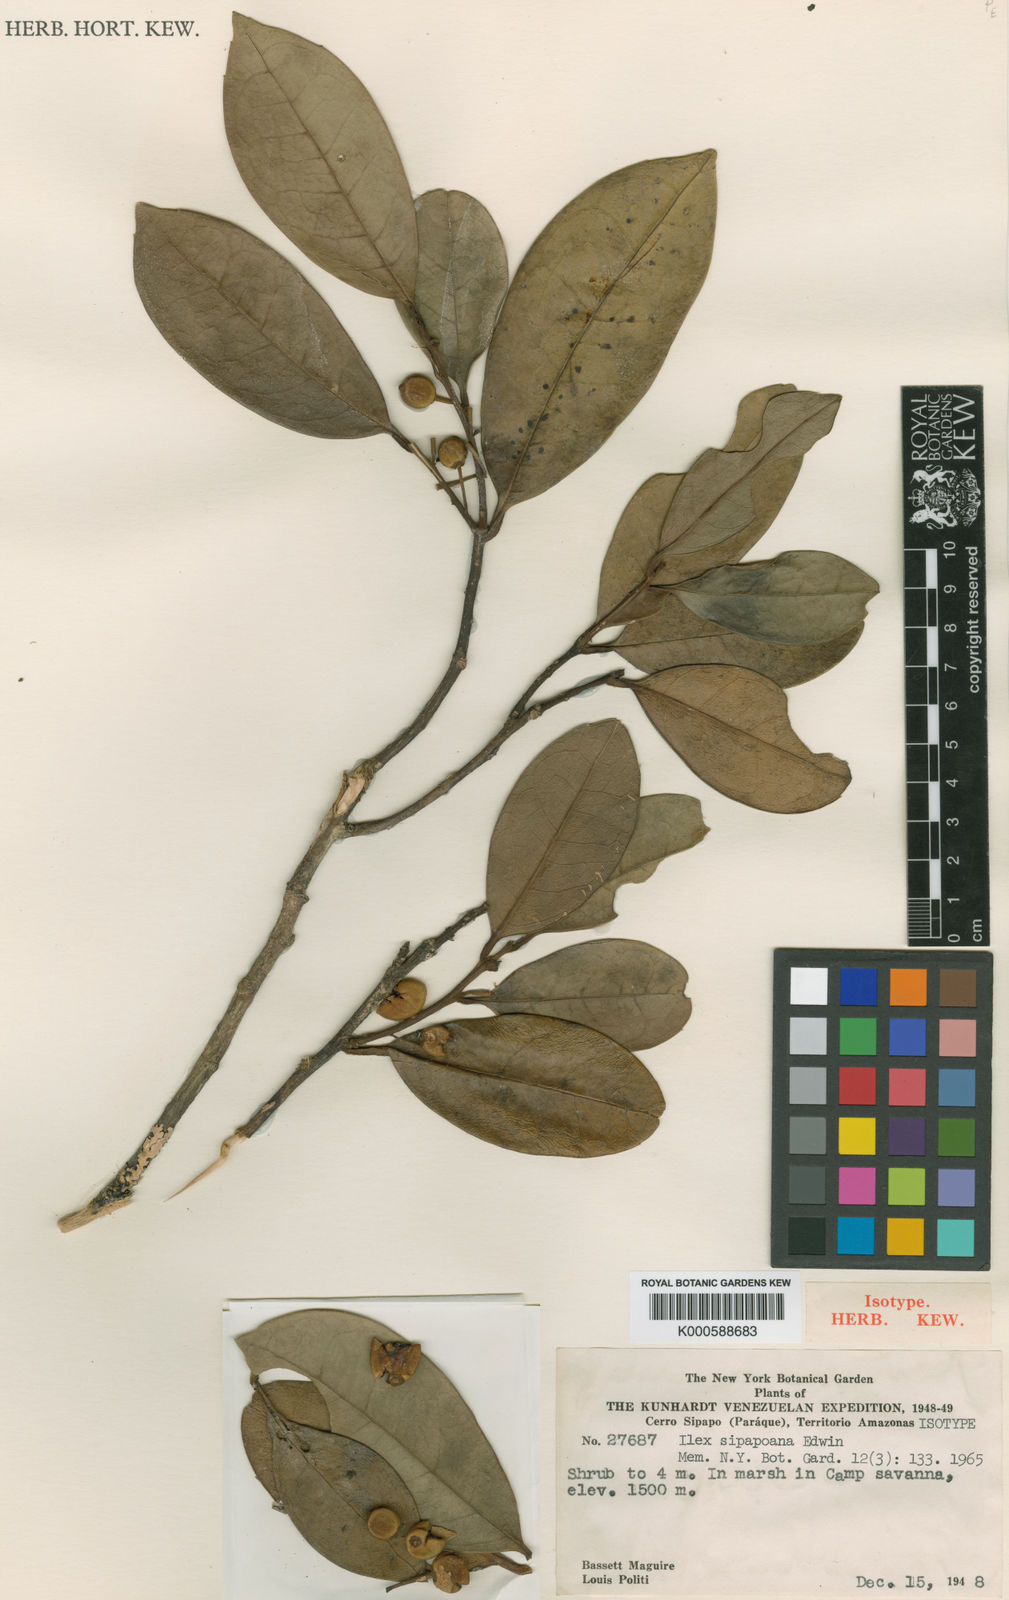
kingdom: Plantae
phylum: Tracheophyta
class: Magnoliopsida
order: Aquifoliales
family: Aquifoliaceae
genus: Ilex
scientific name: Ilex sipapoana
